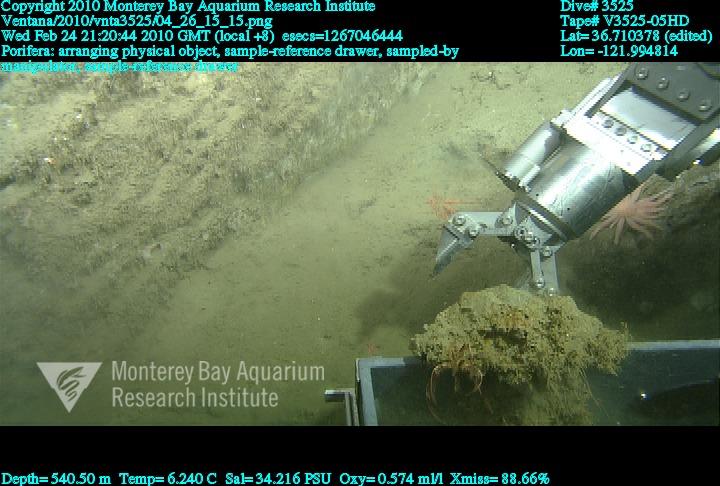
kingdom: Animalia
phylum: Porifera
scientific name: Porifera
